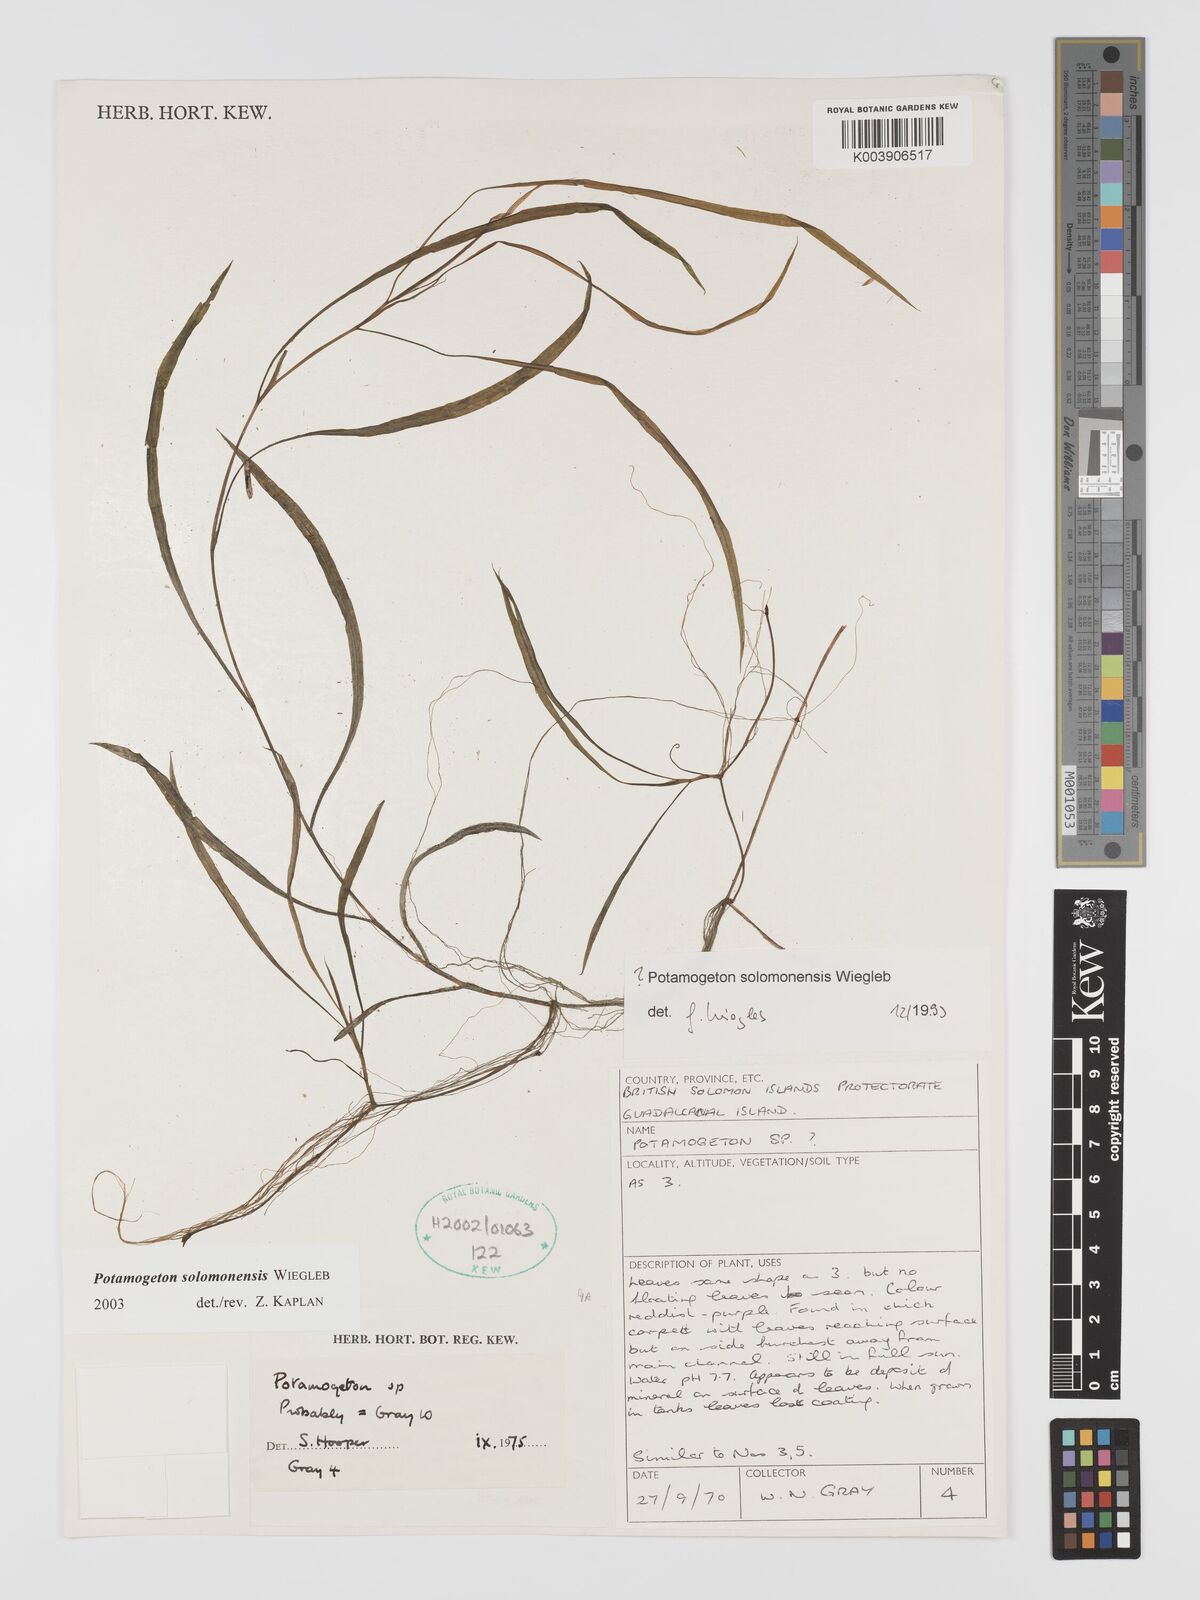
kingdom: Plantae
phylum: Tracheophyta
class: Liliopsida
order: Alismatales
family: Potamogetonaceae
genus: Potamogeton
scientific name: Potamogeton solomonensis
